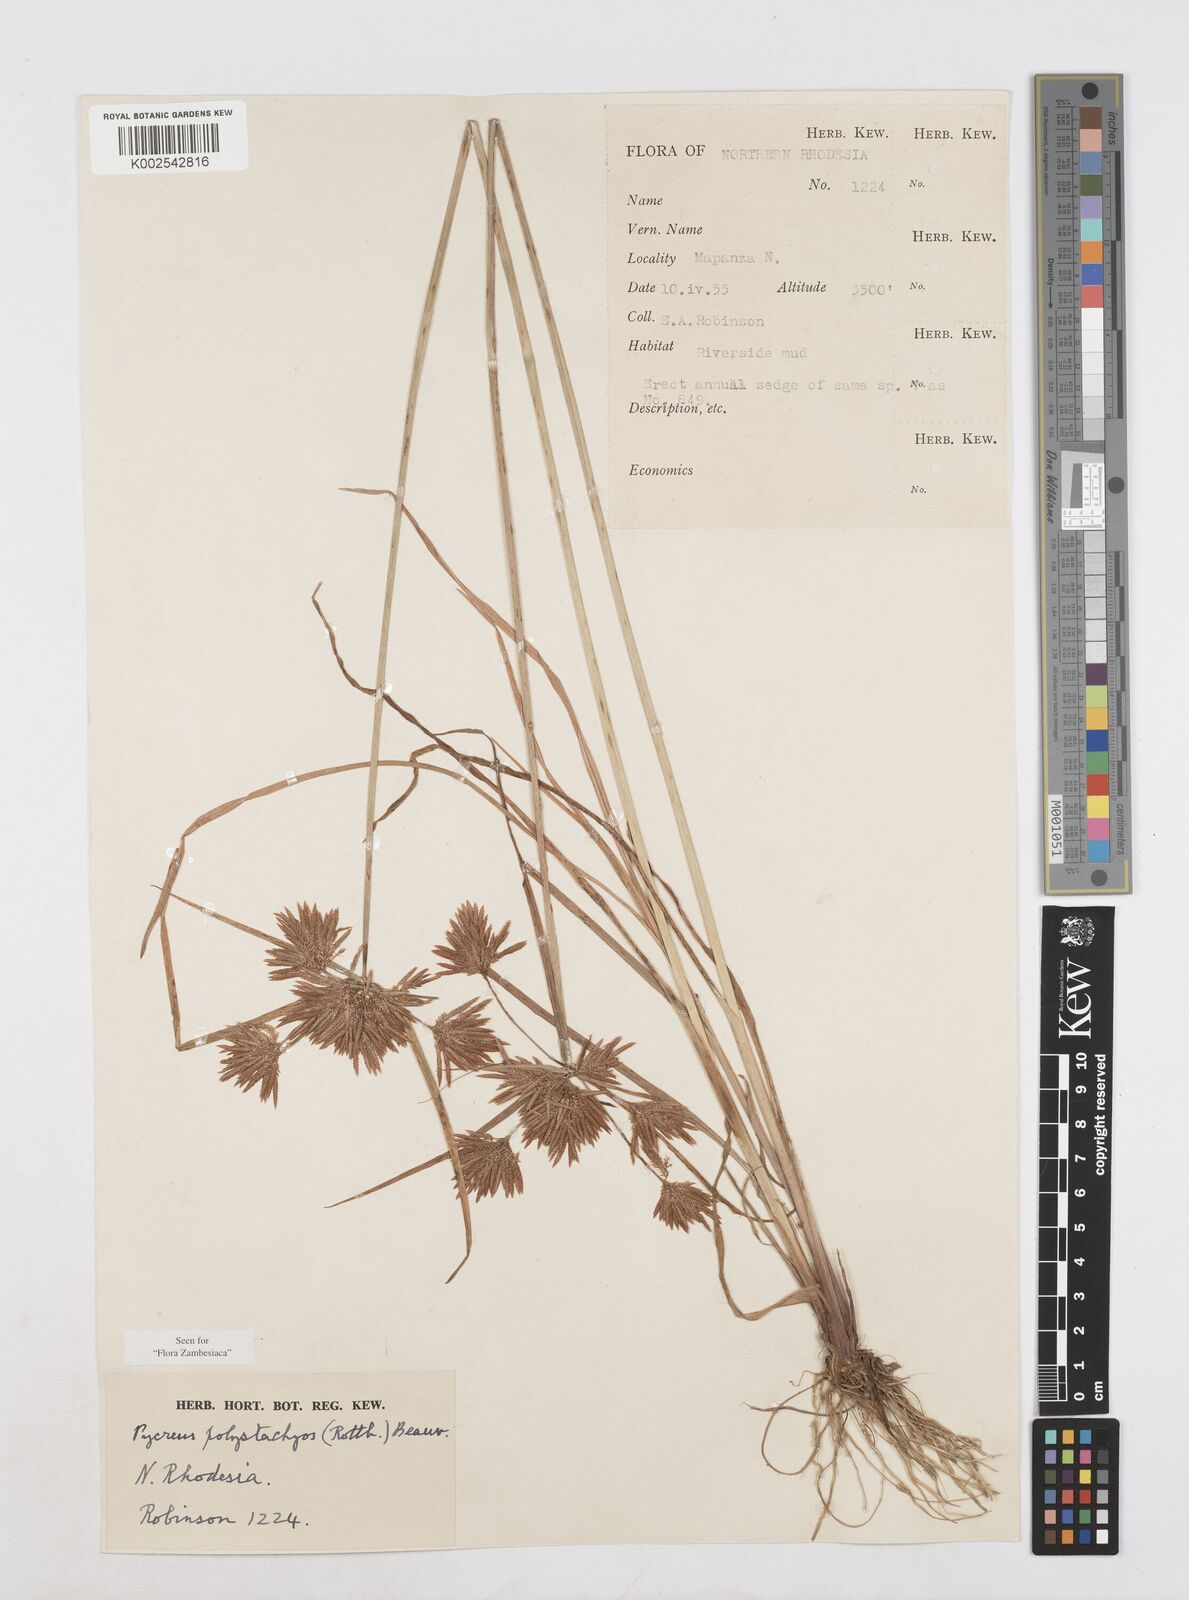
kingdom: Plantae
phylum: Tracheophyta
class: Liliopsida
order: Poales
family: Cyperaceae
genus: Cyperus
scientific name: Cyperus polystachyos
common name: Bunchy flat sedge
